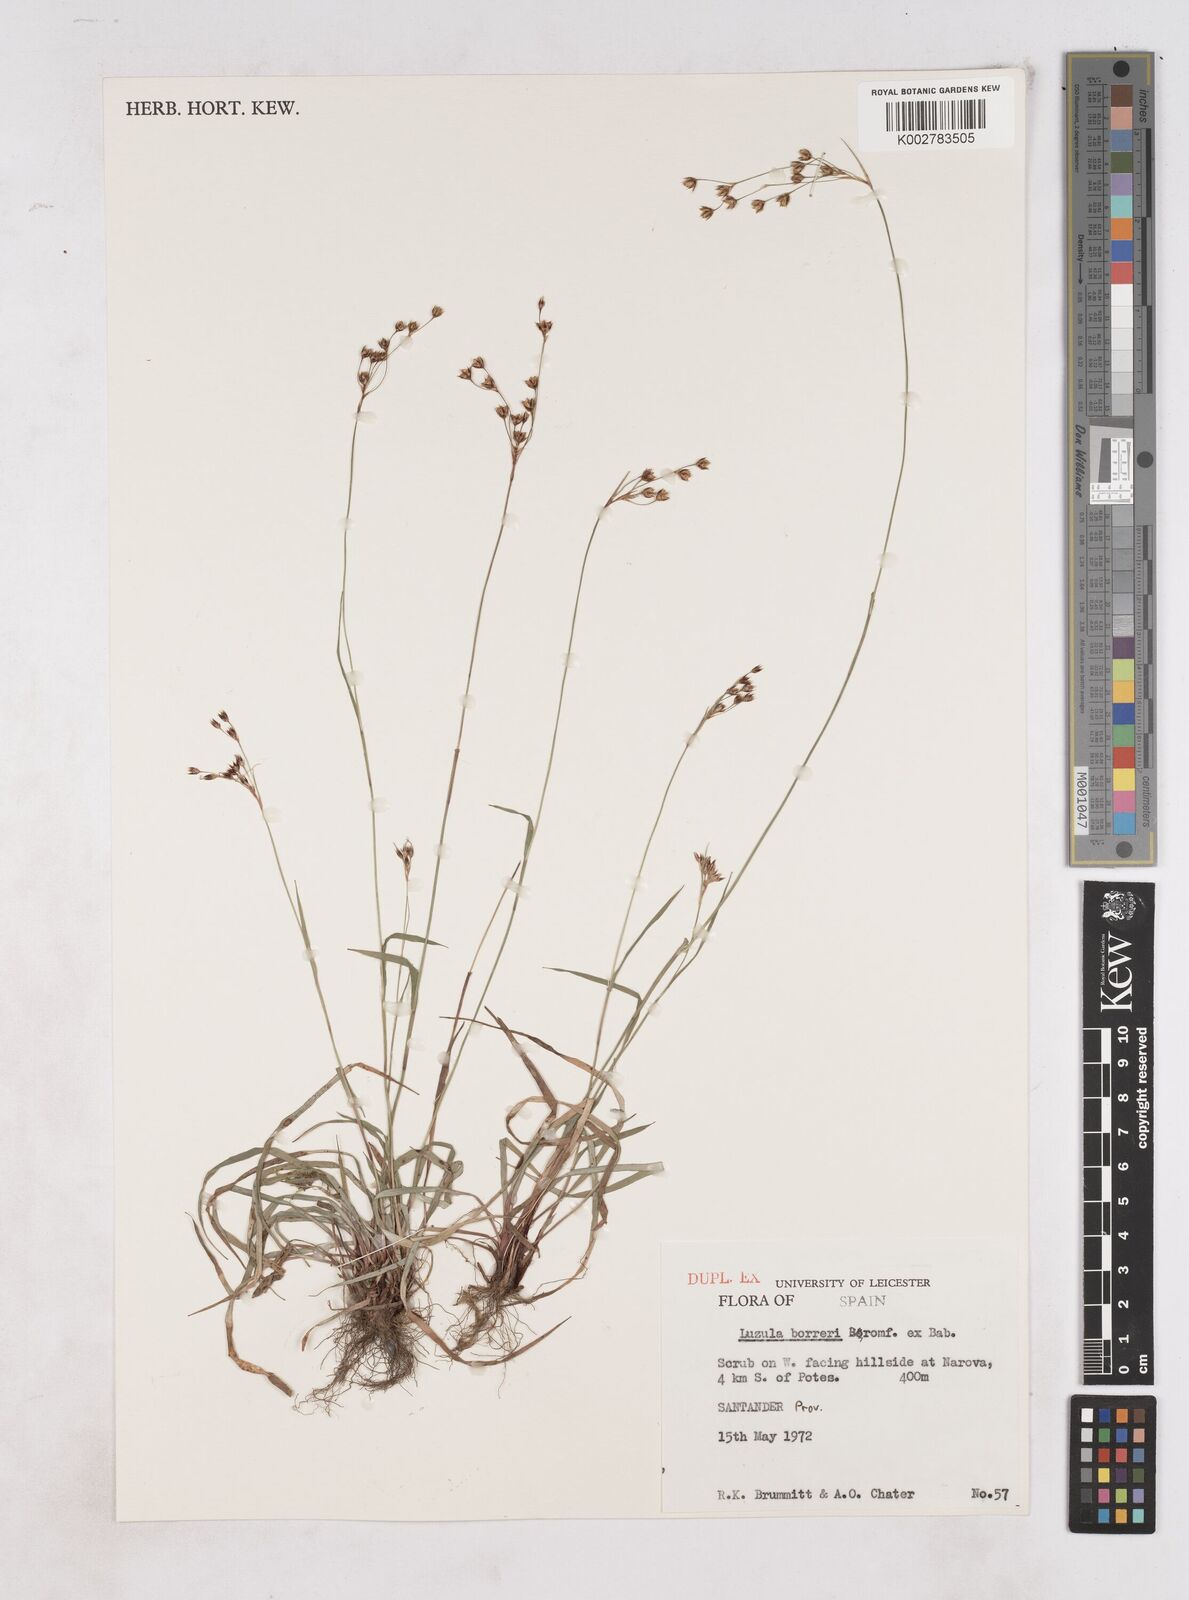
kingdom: Plantae
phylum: Tracheophyta
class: Liliopsida
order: Poales
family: Juncaceae
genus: Luzula
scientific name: Luzula borreri
